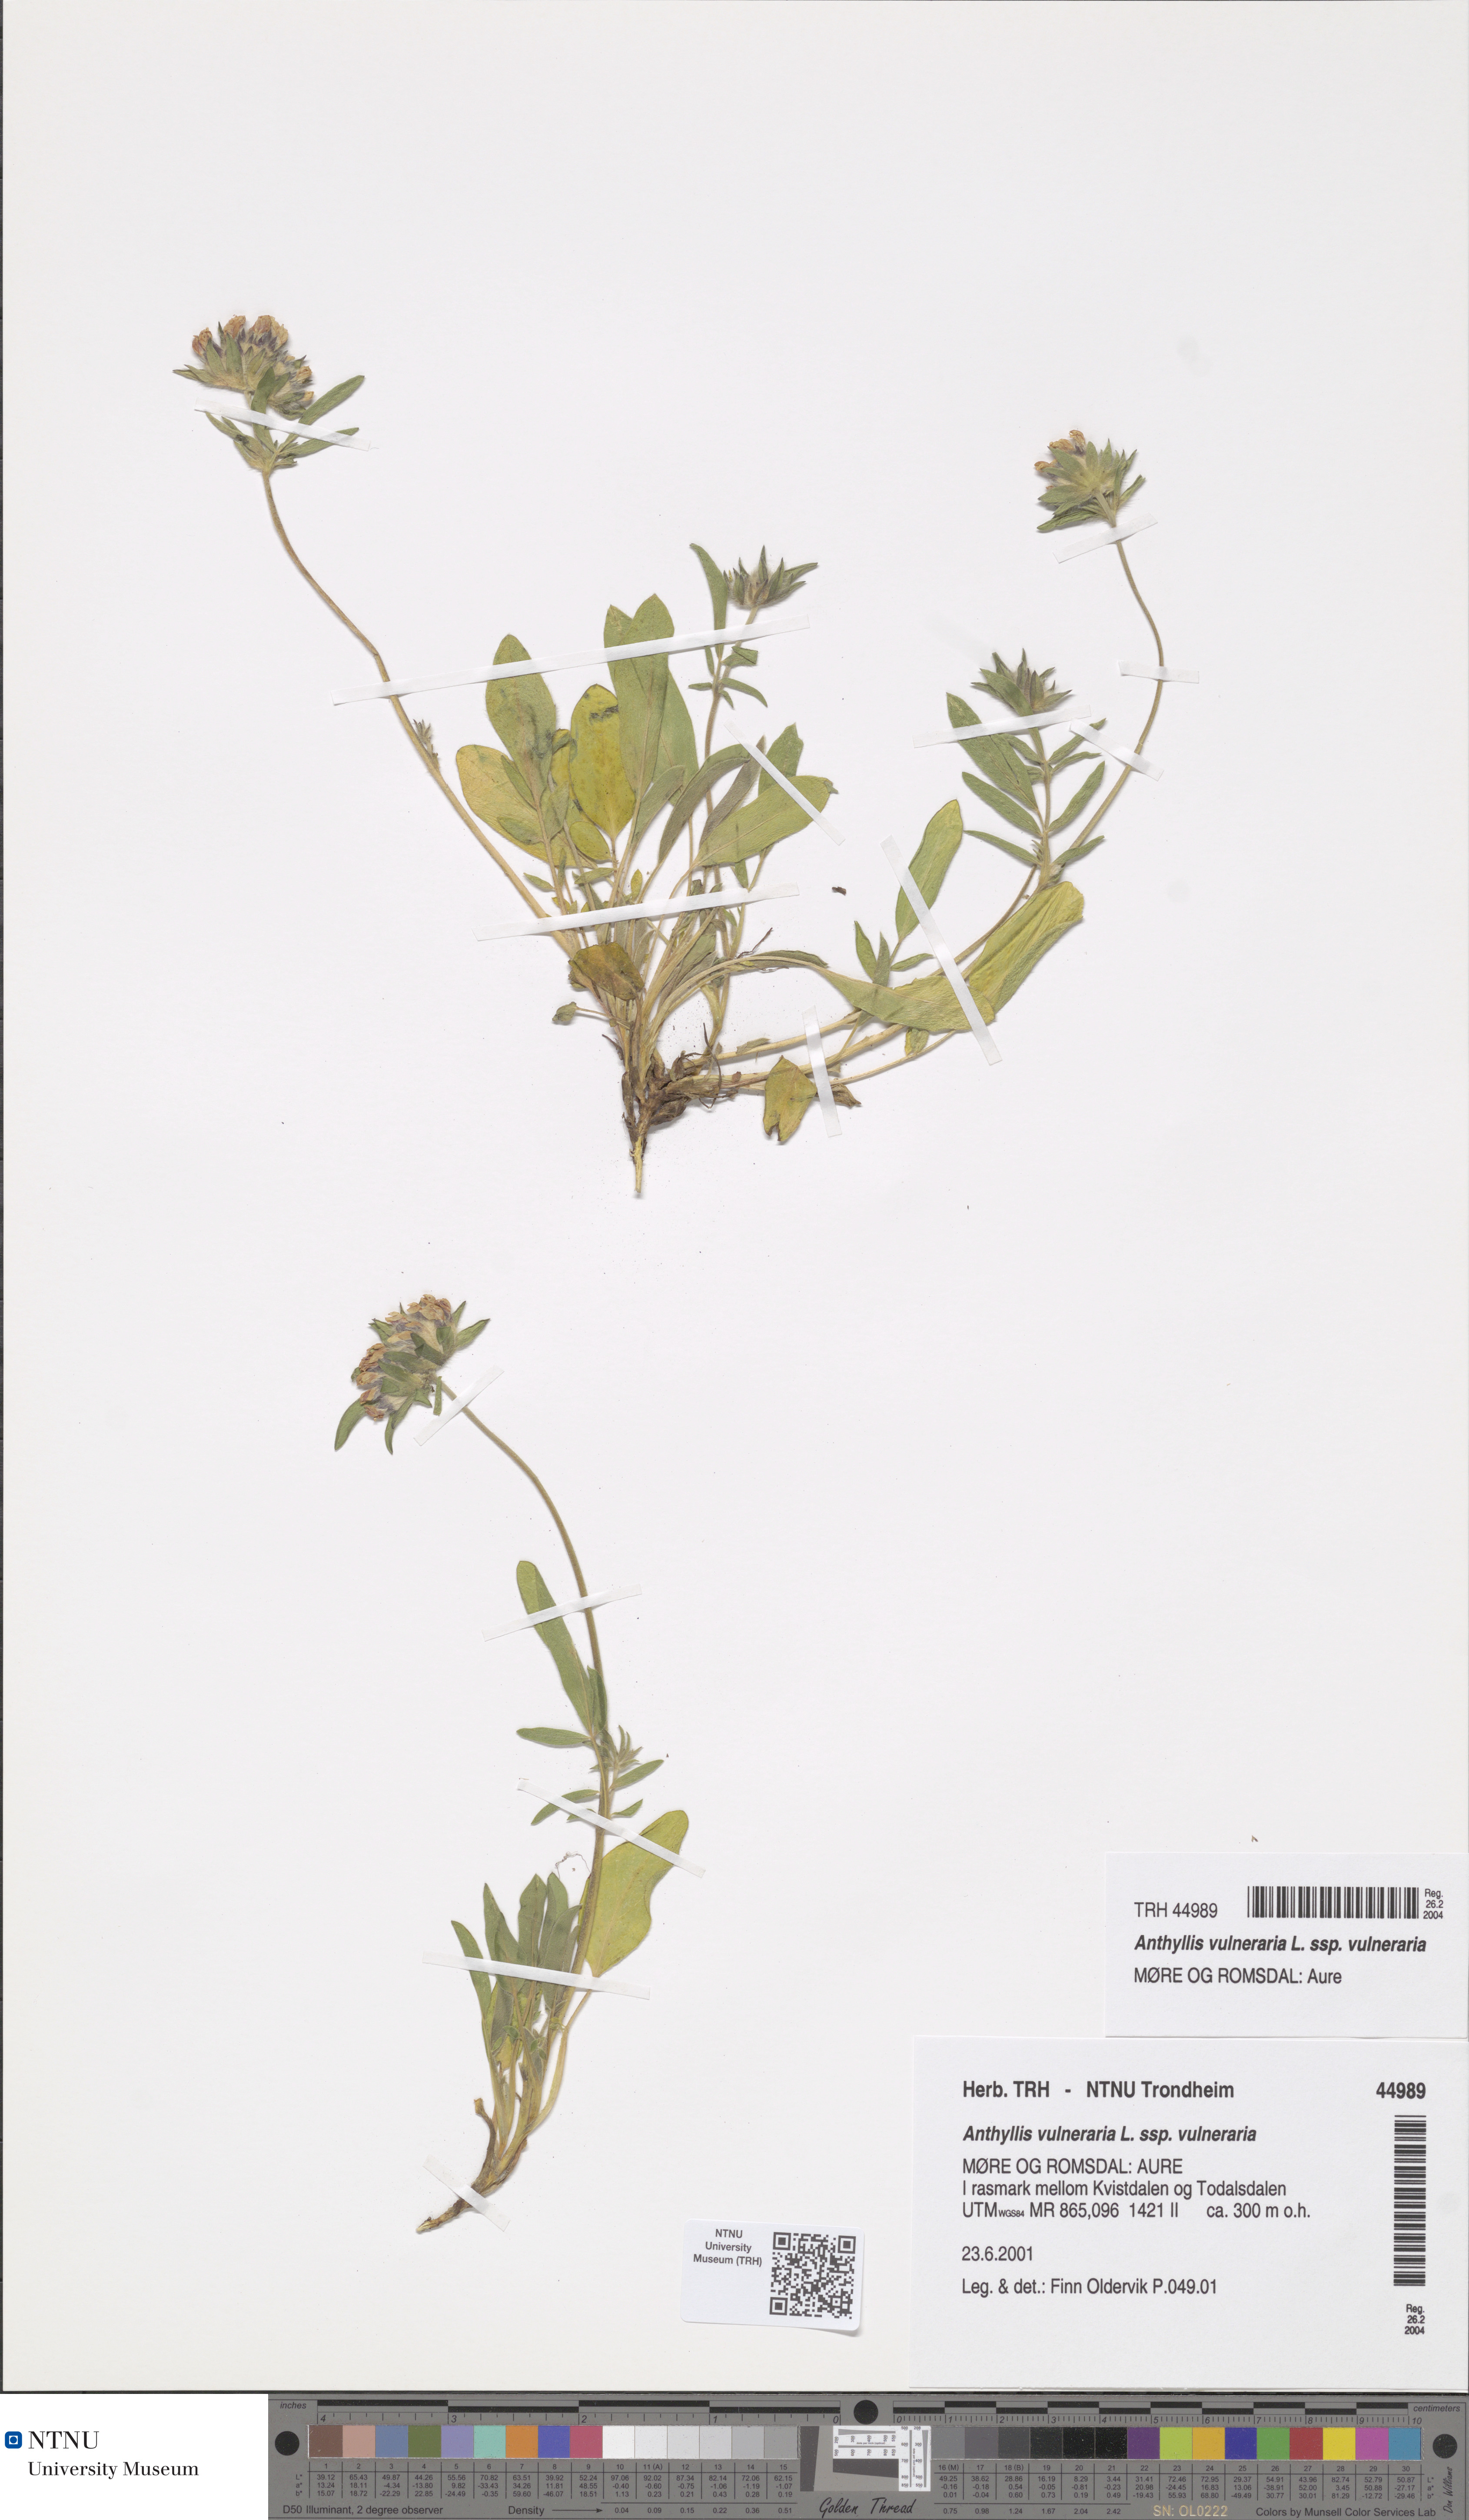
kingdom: Plantae
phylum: Tracheophyta
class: Magnoliopsida
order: Fabales
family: Fabaceae
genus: Anthyllis
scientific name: Anthyllis vulneraria
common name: Kidney vetch
